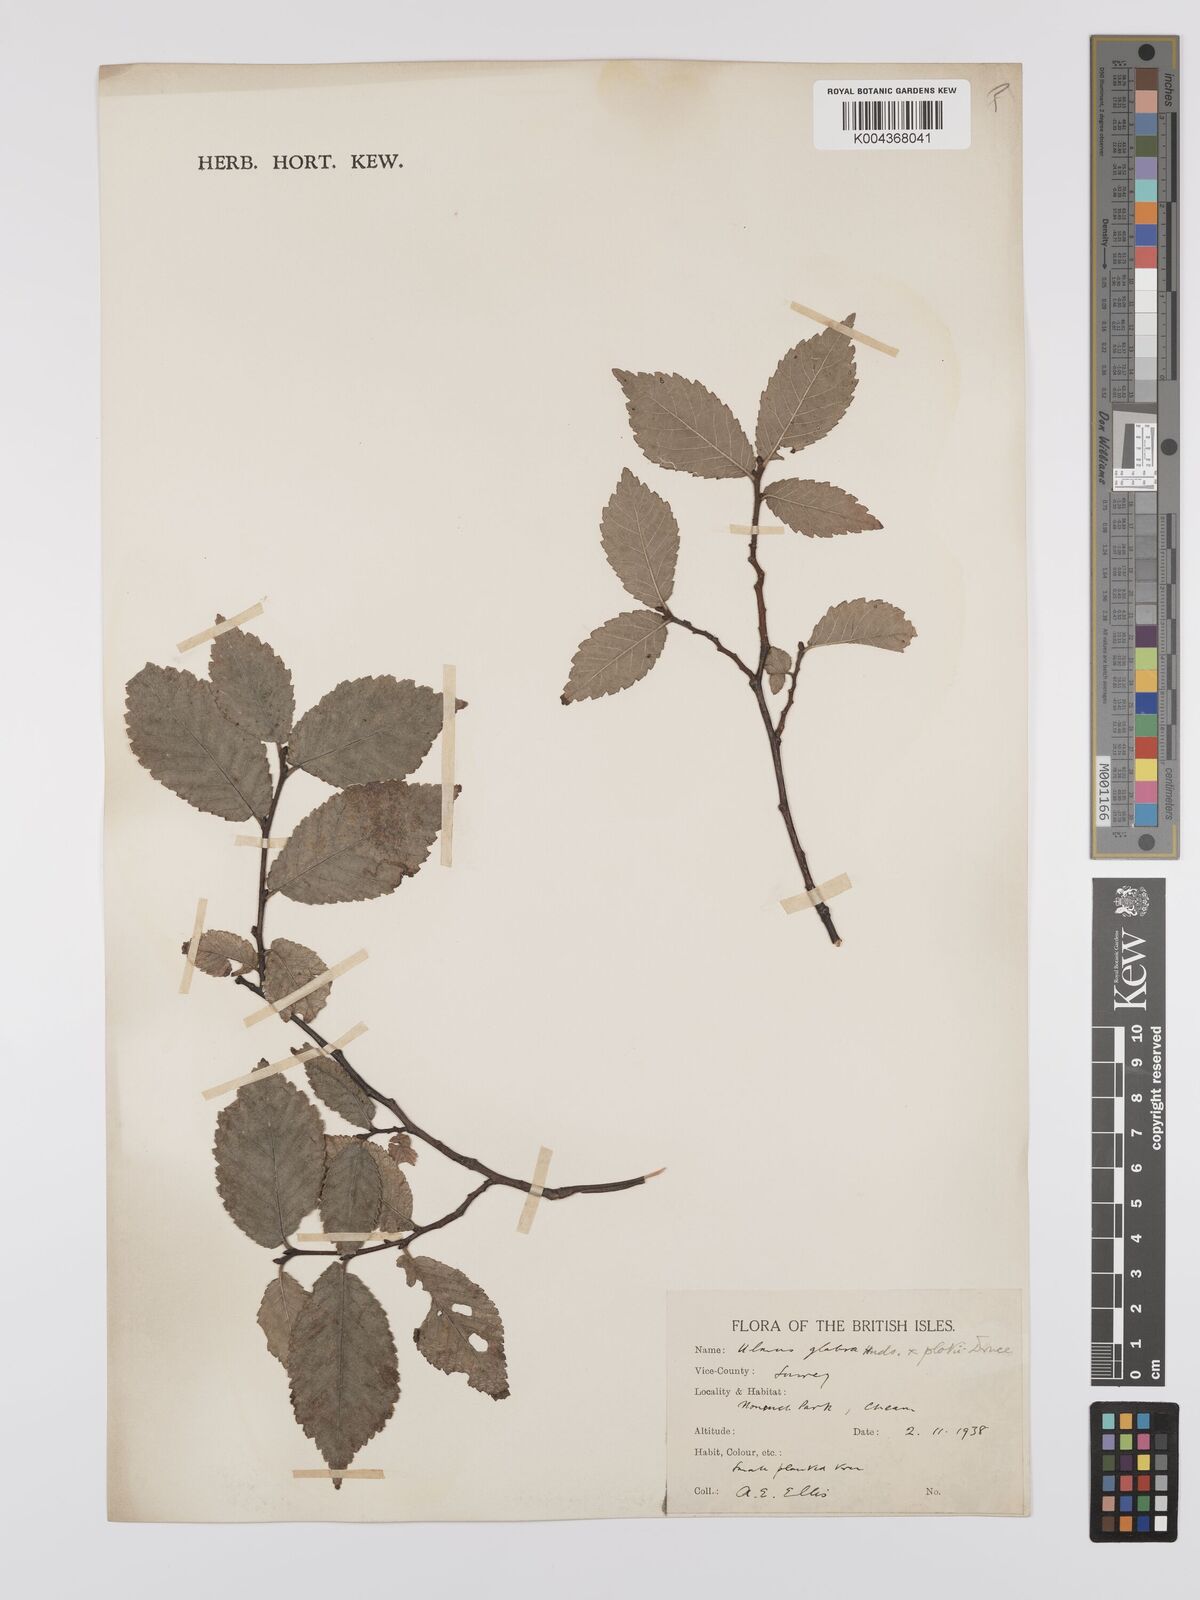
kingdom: Plantae
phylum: Tracheophyta
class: Magnoliopsida
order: Rosales
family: Ulmaceae
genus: Ulmus
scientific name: Ulmus
